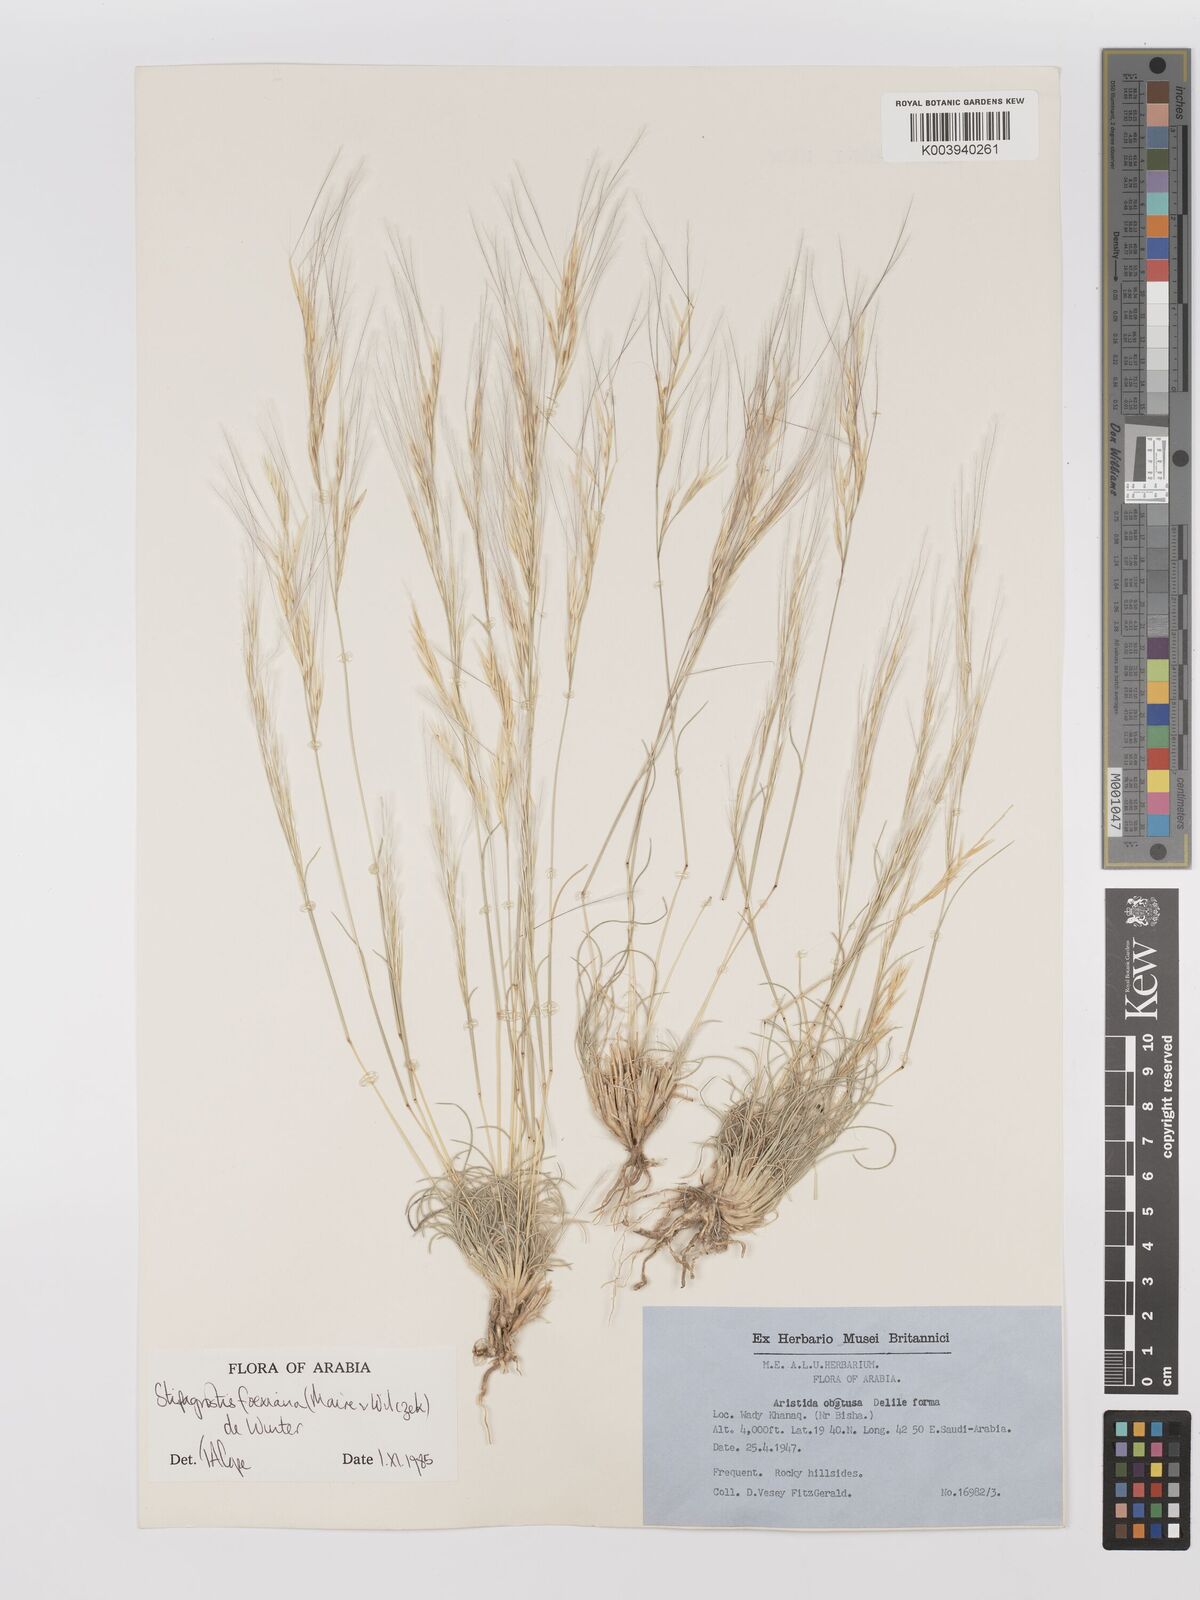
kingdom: Plantae
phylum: Tracheophyta
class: Liliopsida
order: Poales
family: Poaceae
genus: Stipagrostis
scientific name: Stipagrostis foexiana
